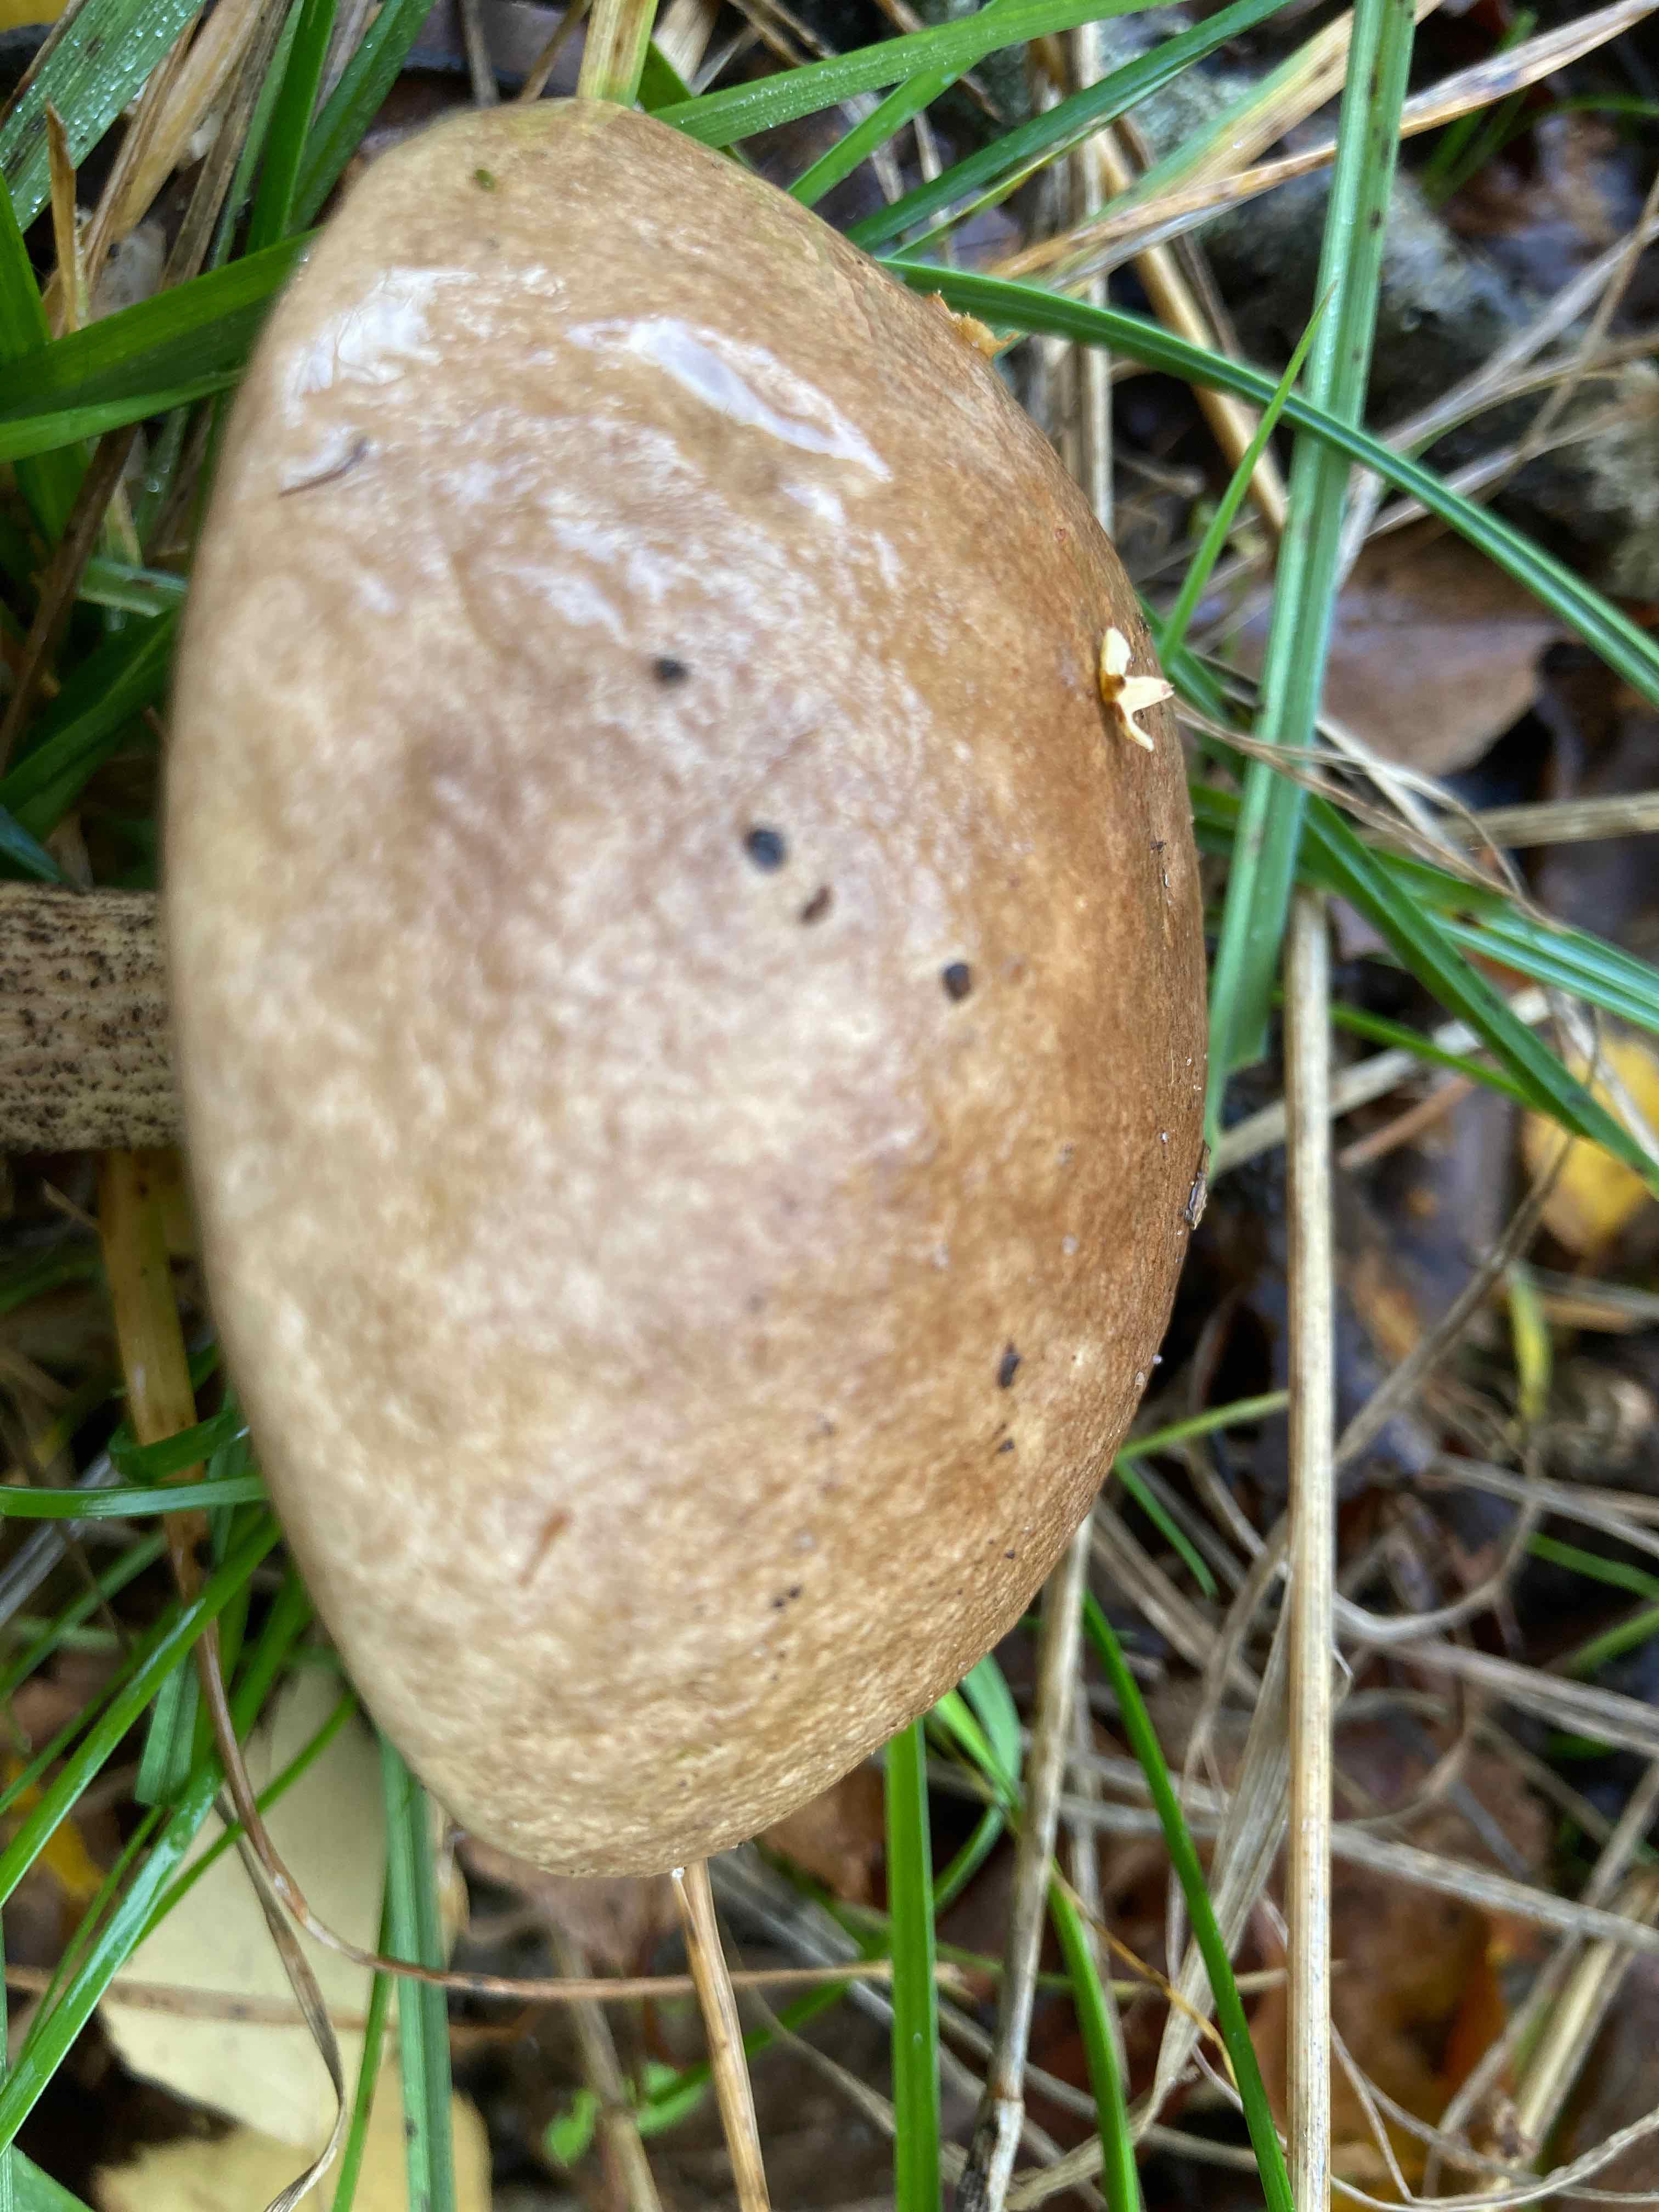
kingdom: Fungi
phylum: Basidiomycota
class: Agaricomycetes
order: Boletales
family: Boletaceae
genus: Leccinum
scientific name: Leccinum scabrum
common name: brun skælrørhat
